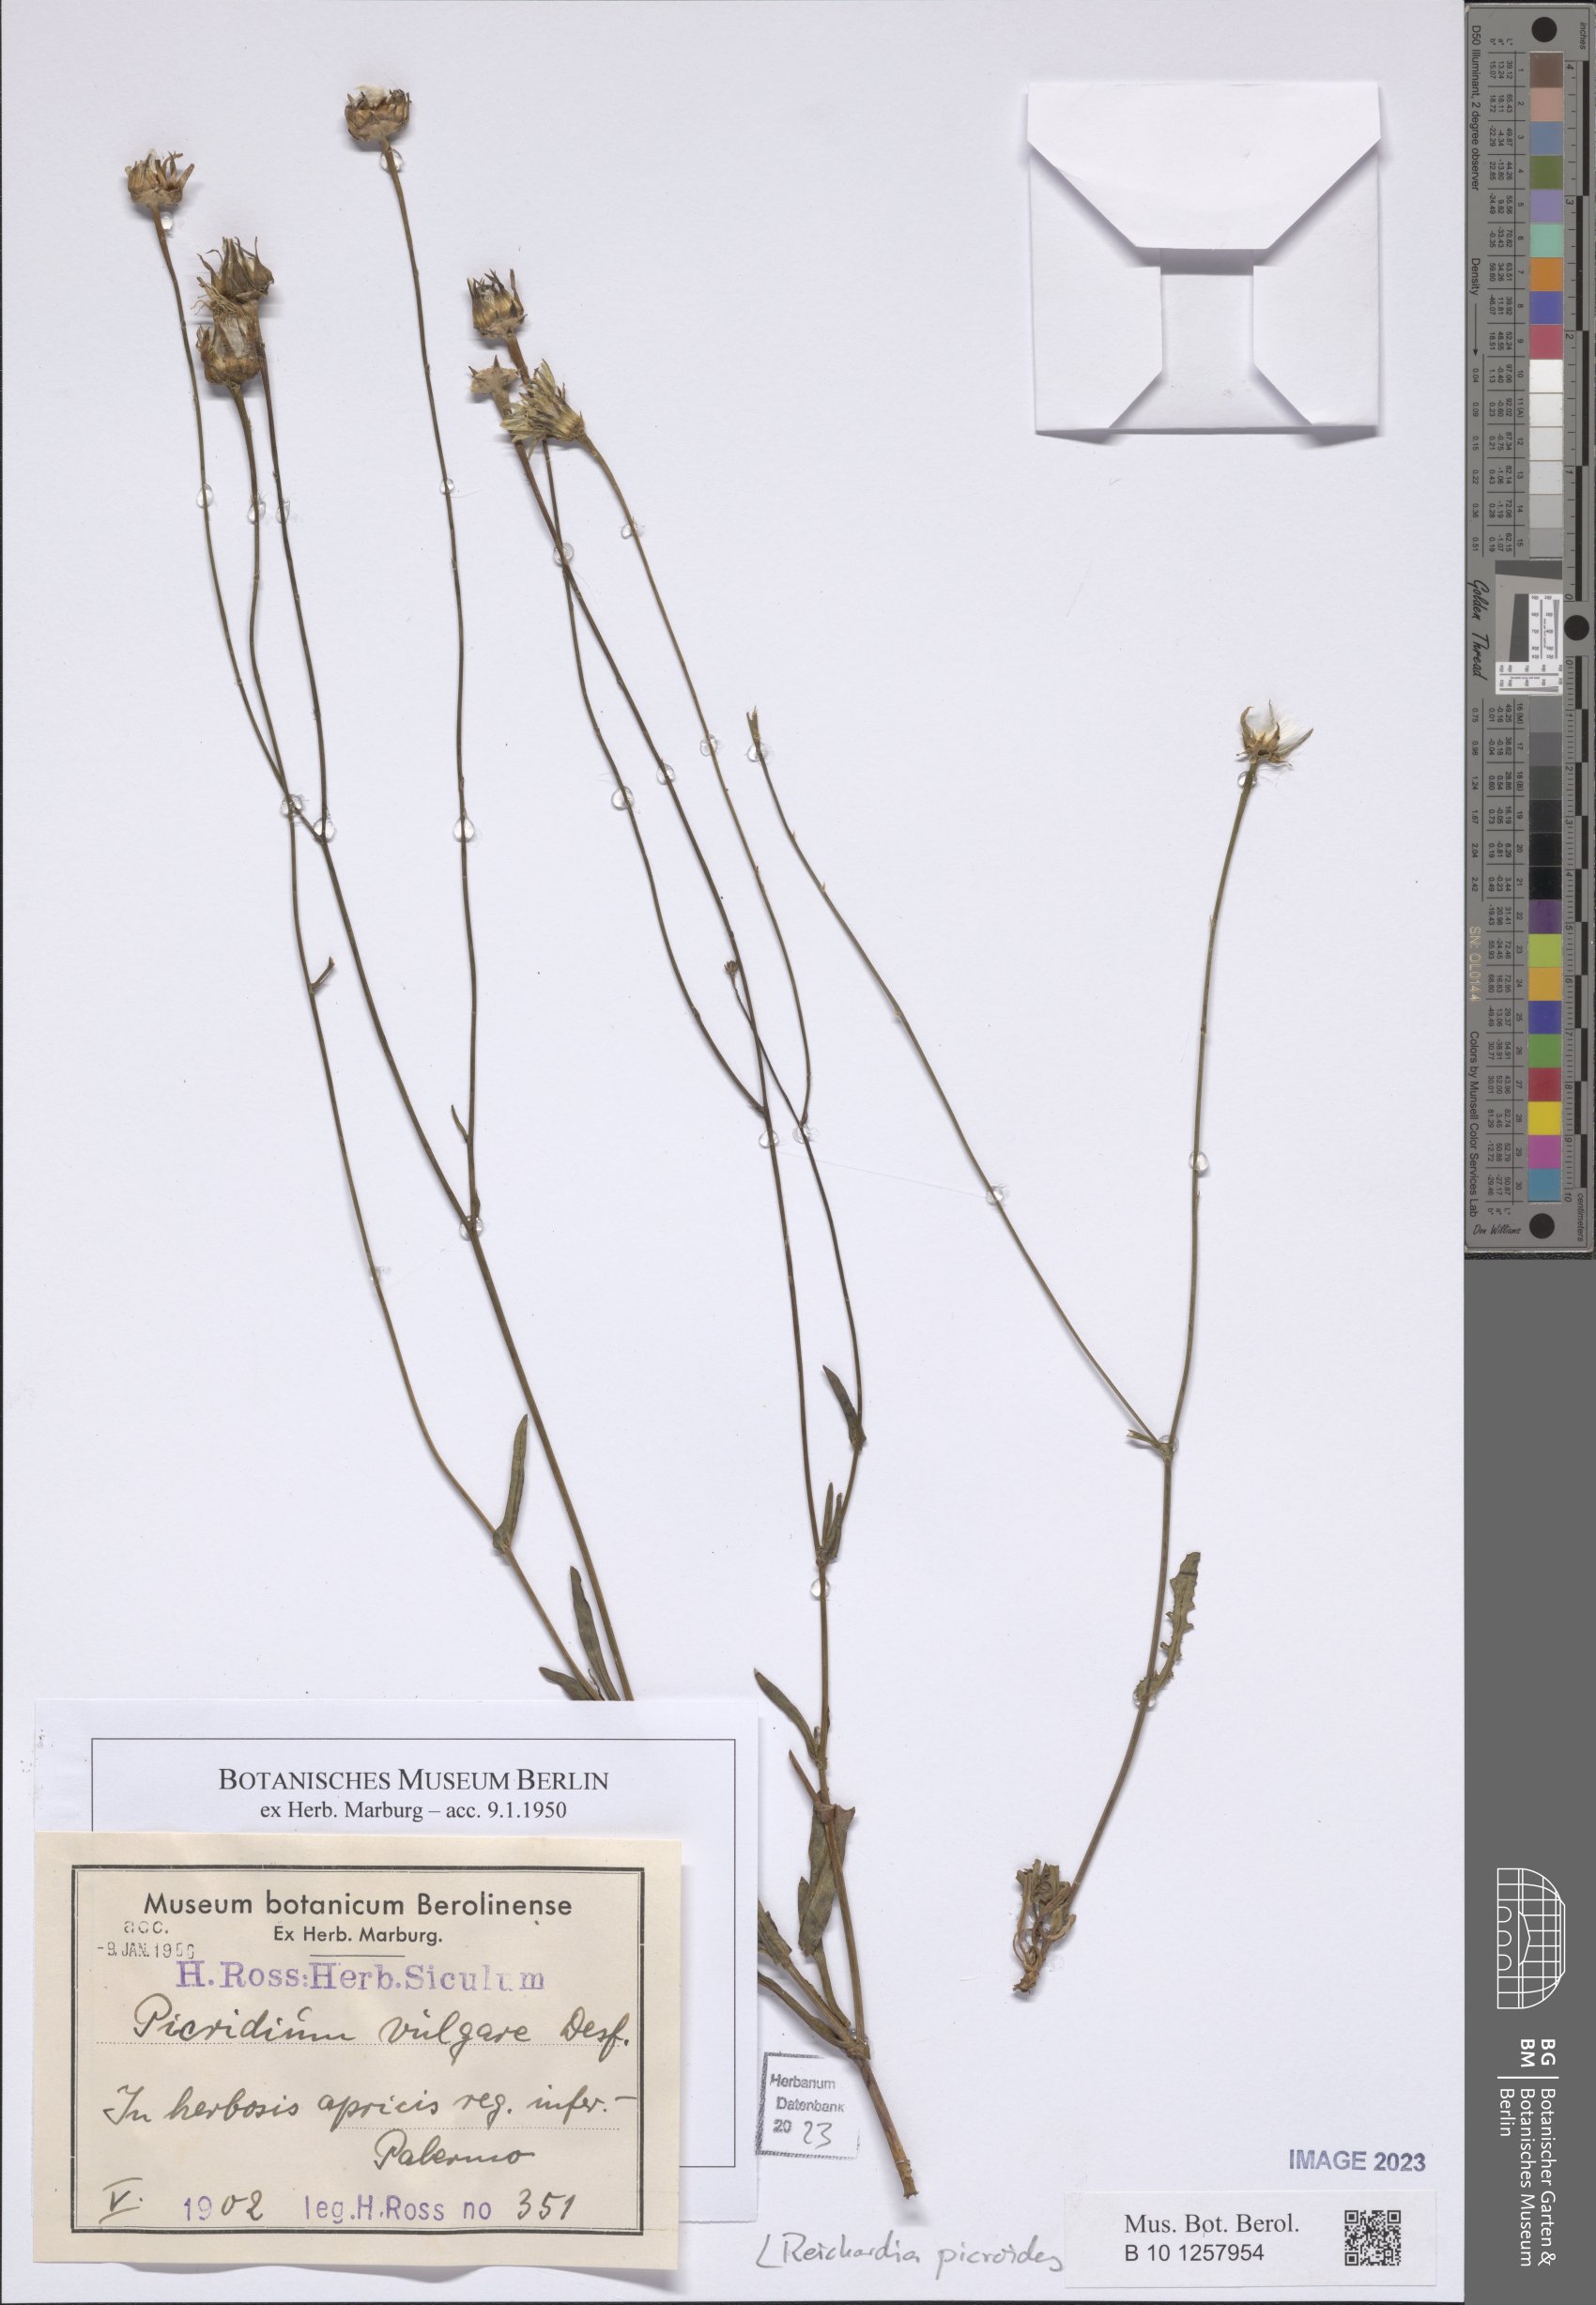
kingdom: Plantae
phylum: Tracheophyta
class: Magnoliopsida
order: Asterales
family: Asteraceae
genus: Reichardia
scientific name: Reichardia picroides
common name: Common brighteyes
